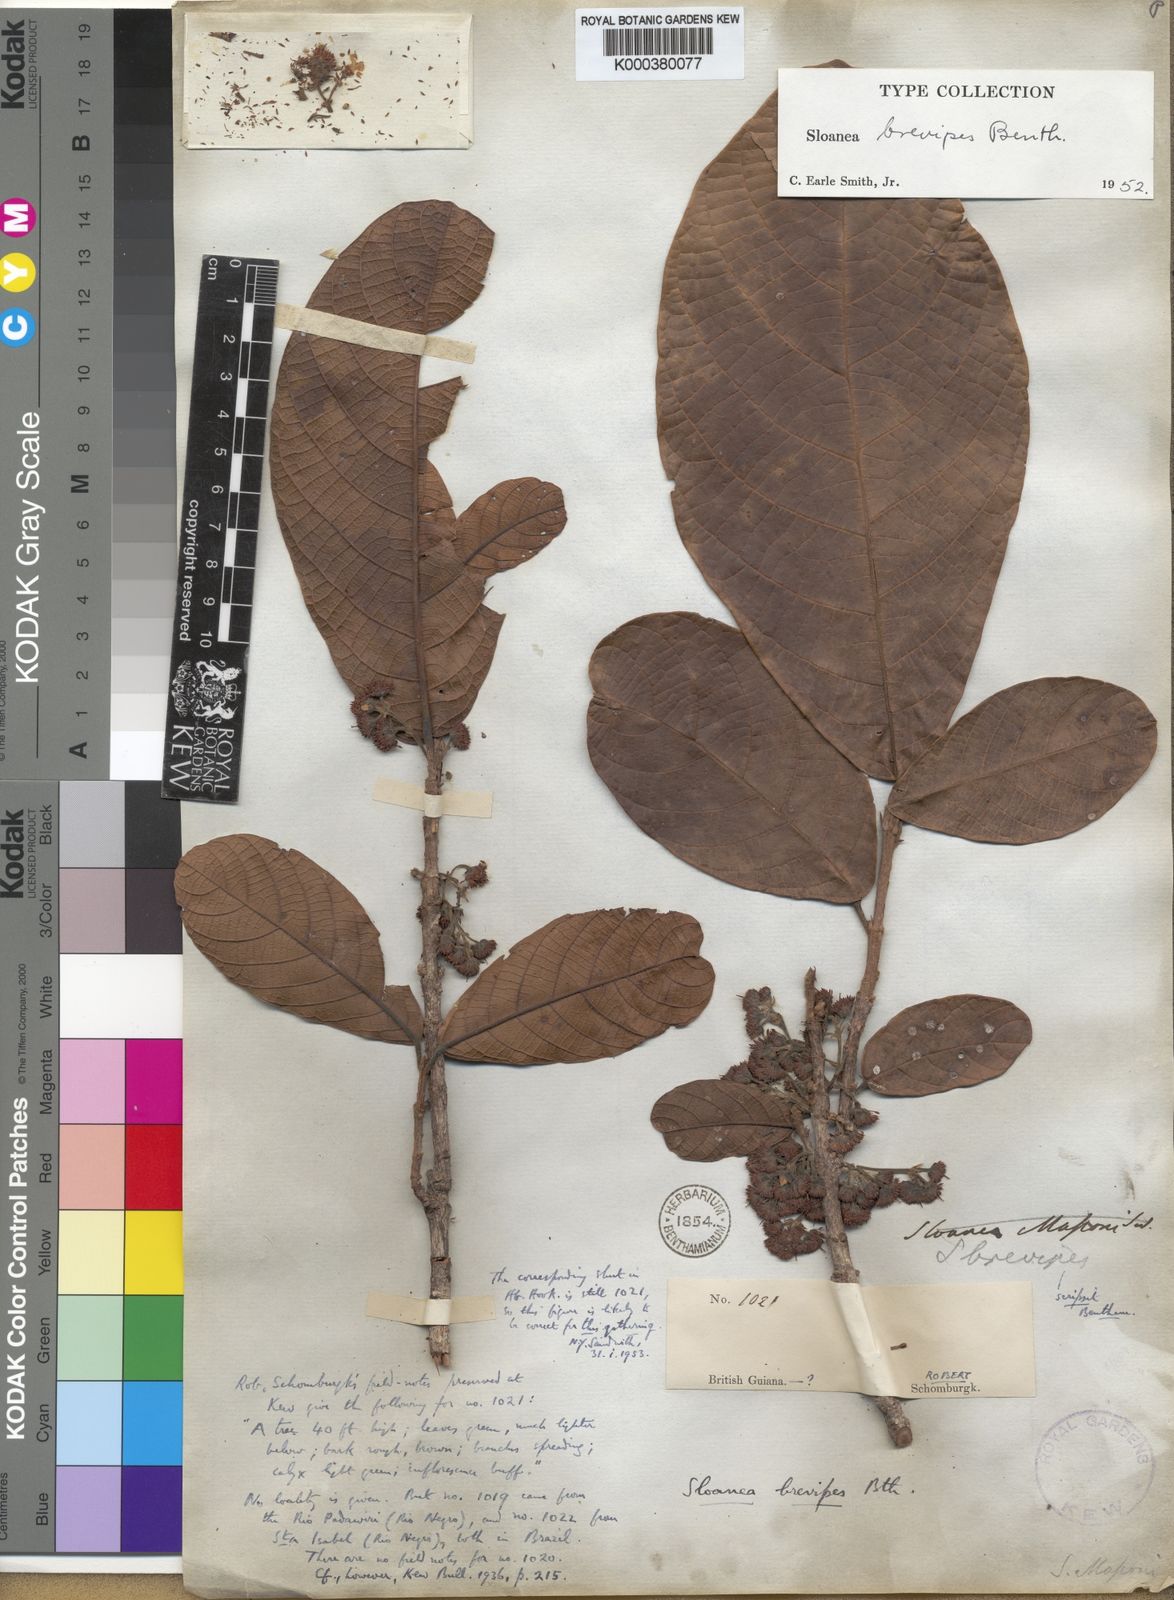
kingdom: Plantae
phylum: Tracheophyta
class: Magnoliopsida
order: Oxalidales
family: Elaeocarpaceae
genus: Sloanea
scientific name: Sloanea brevipes
